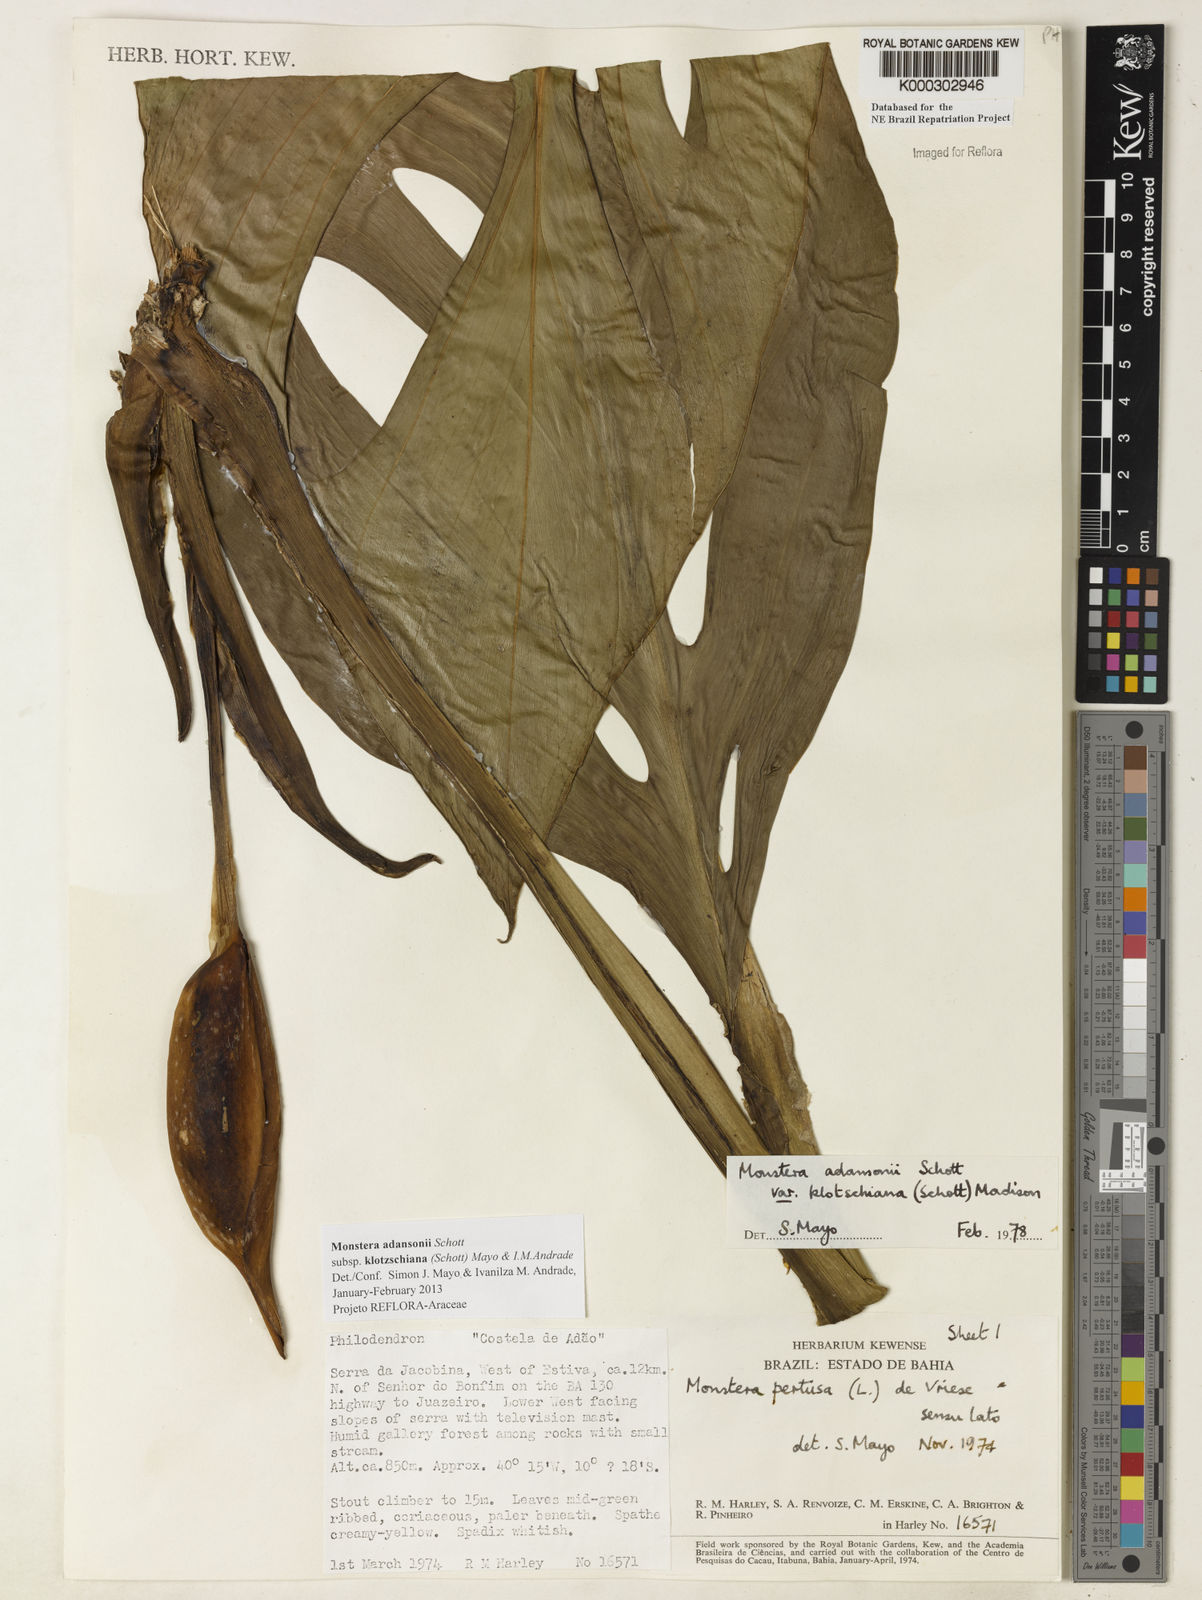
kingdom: Plantae
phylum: Tracheophyta
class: Liliopsida
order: Alismatales
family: Araceae
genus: Monstera
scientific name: Monstera adansonii
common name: Tarovine
